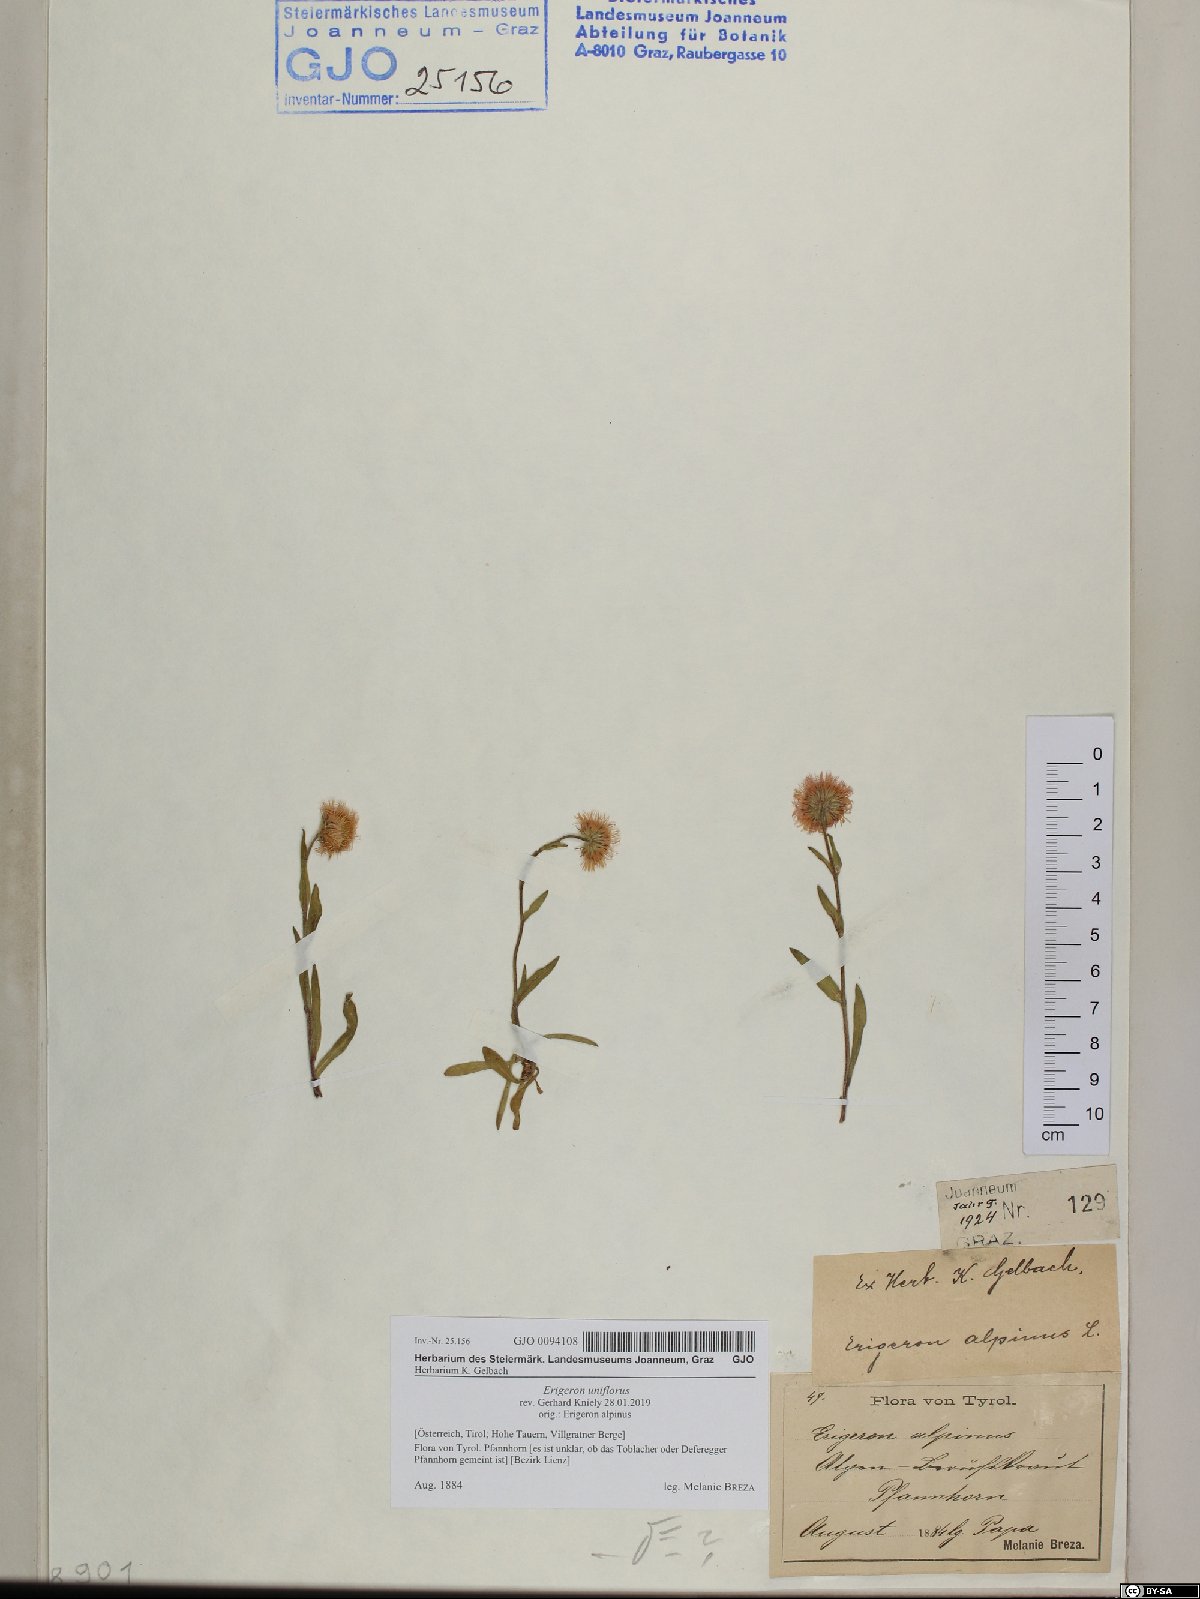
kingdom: Plantae
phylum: Tracheophyta
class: Magnoliopsida
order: Asterales
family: Asteraceae
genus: Erigeron
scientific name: Erigeron uniflorus
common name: Northern daisy
